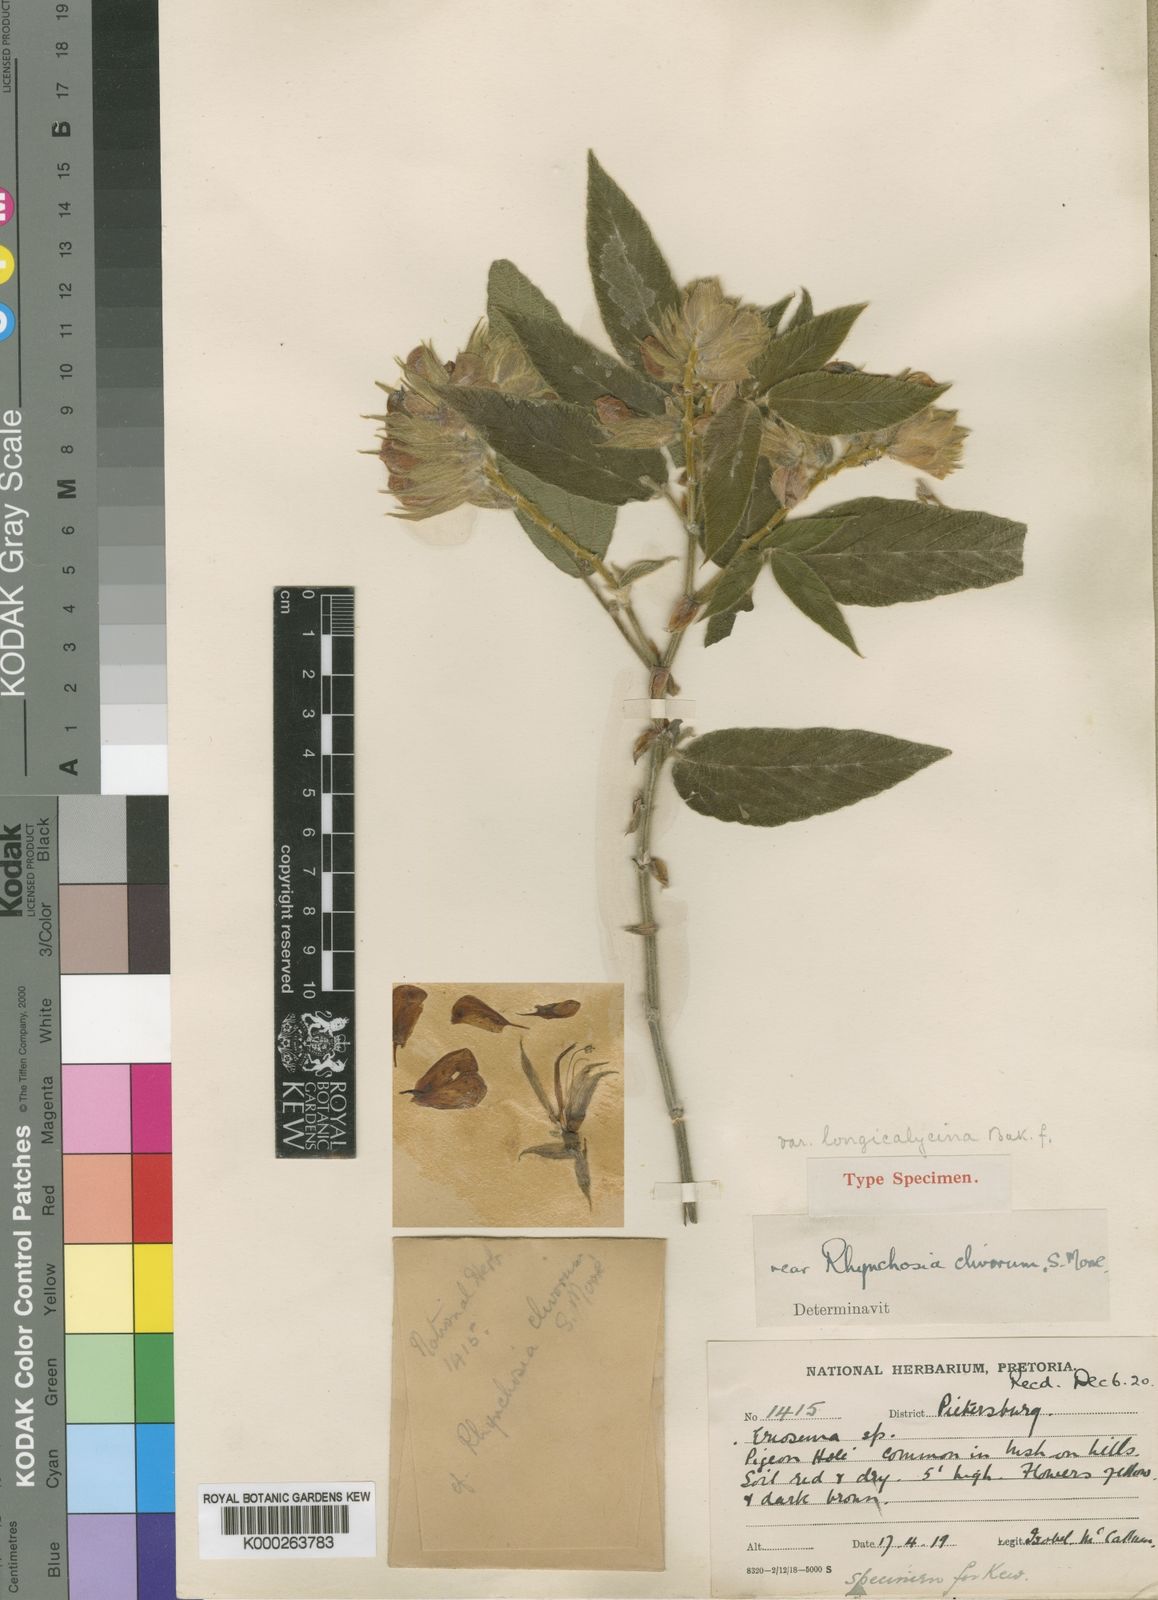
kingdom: Plantae
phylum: Tracheophyta
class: Magnoliopsida
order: Fabales
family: Fabaceae
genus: Rhynchosia
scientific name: Rhynchosia clivorum
